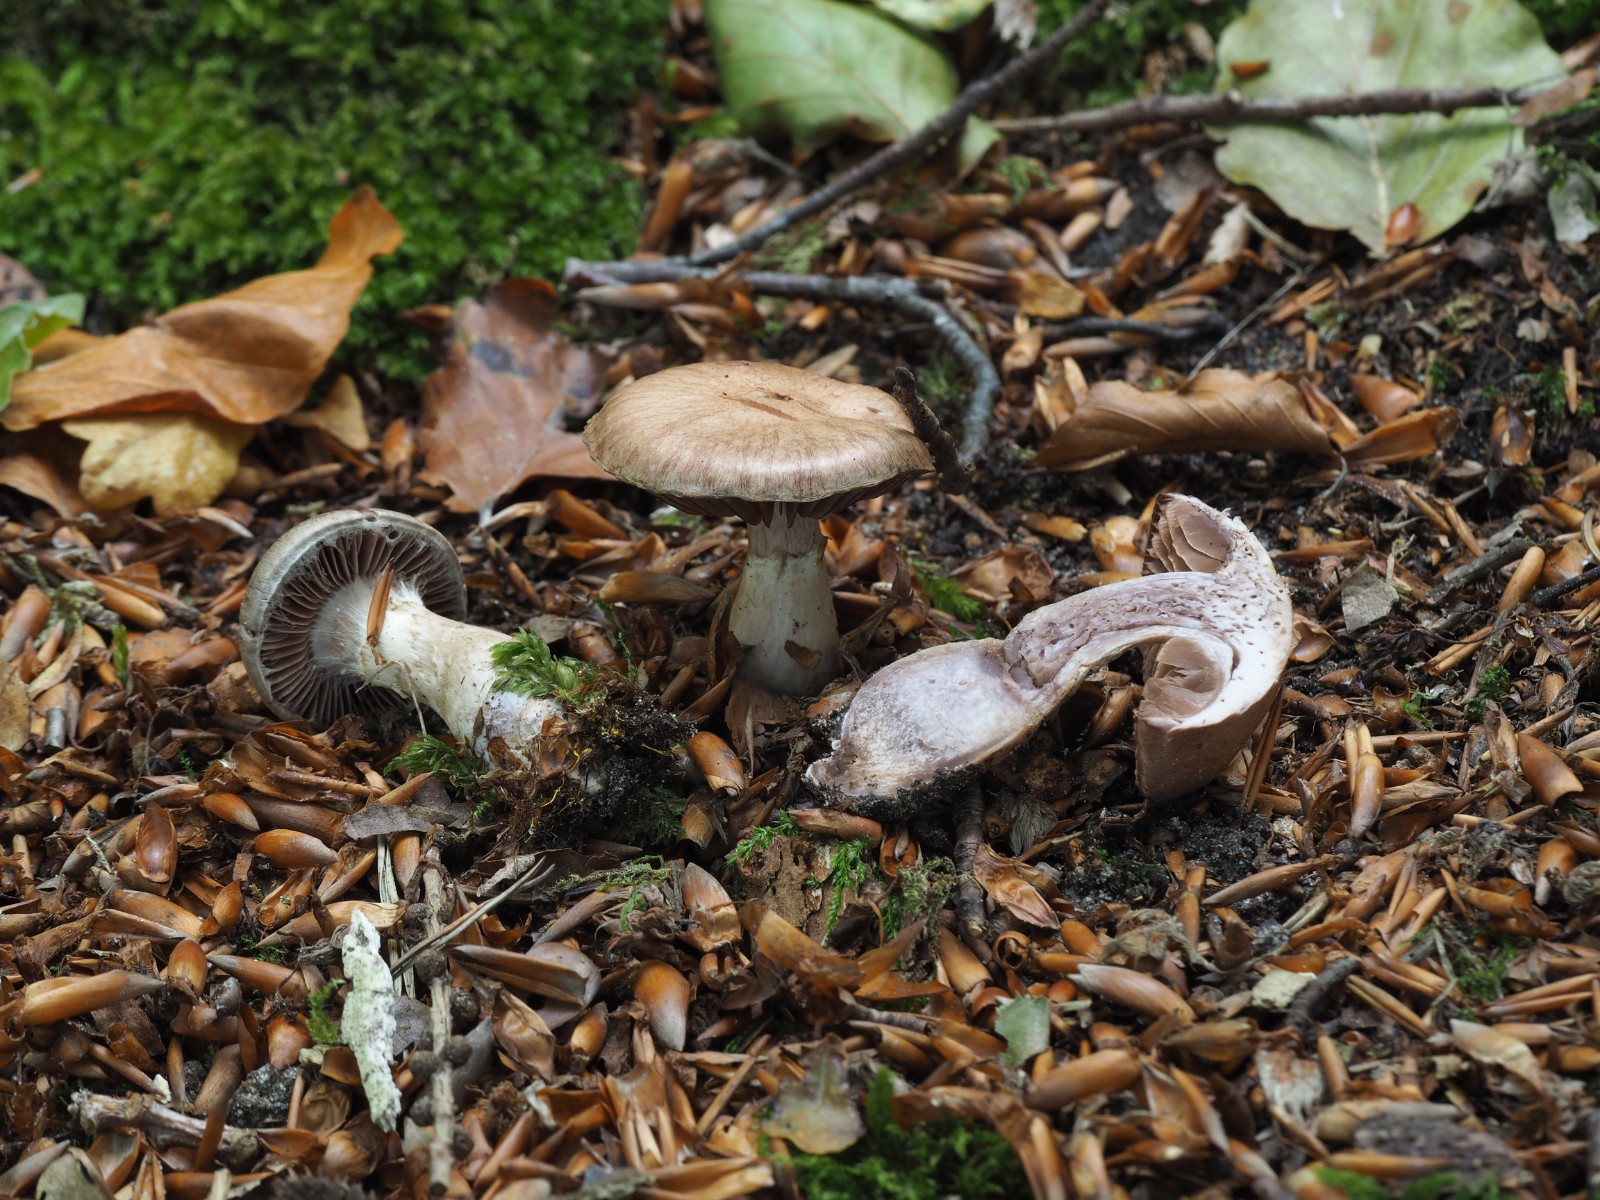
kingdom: Fungi
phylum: Basidiomycota
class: Agaricomycetes
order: Agaricales
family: Cortinariaceae
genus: Cortinarius
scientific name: Cortinarius torvus
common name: champignonagtig slørhat
